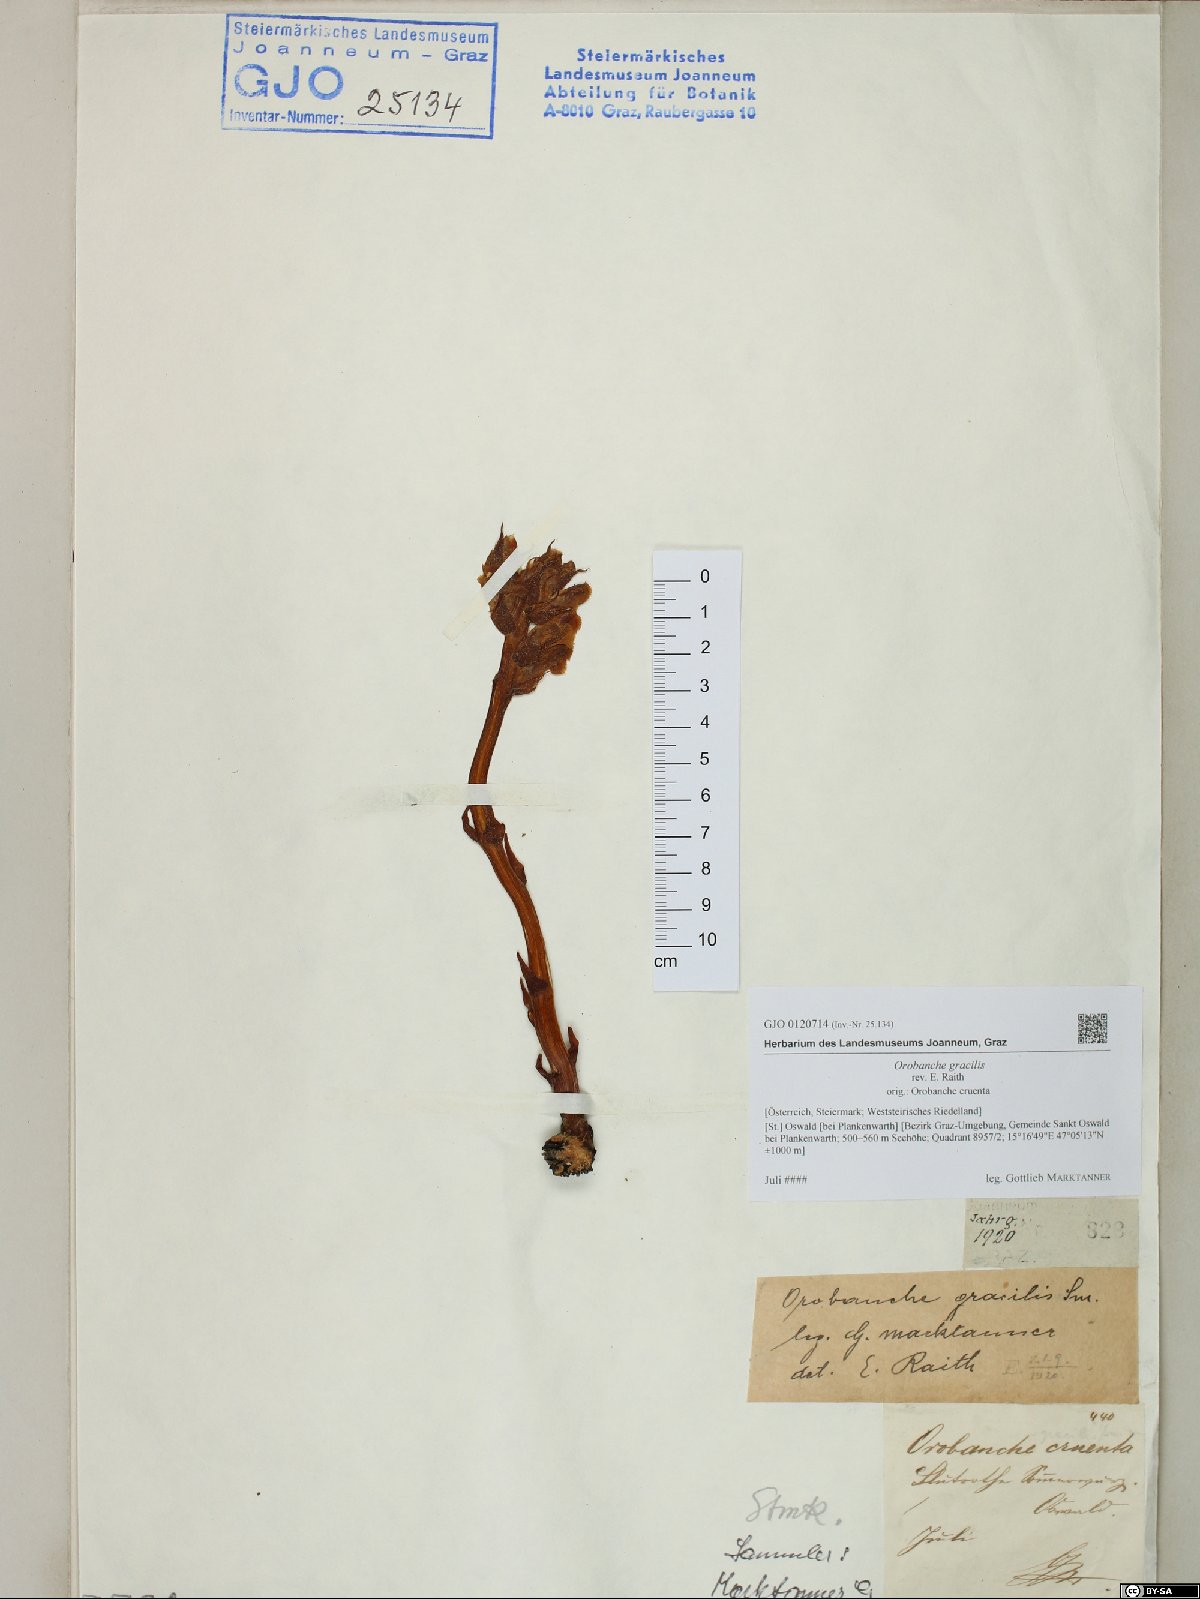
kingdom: Plantae
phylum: Tracheophyta
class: Magnoliopsida
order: Lamiales
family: Orobanchaceae
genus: Orobanche
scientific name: Orobanche gracilis
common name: Slender broomrape
